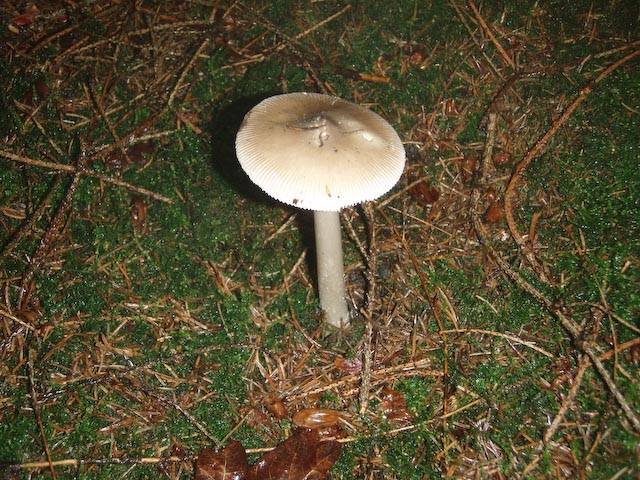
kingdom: Fungi
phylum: Basidiomycota
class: Agaricomycetes
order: Agaricales
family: Amanitaceae
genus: Amanita
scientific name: Amanita
